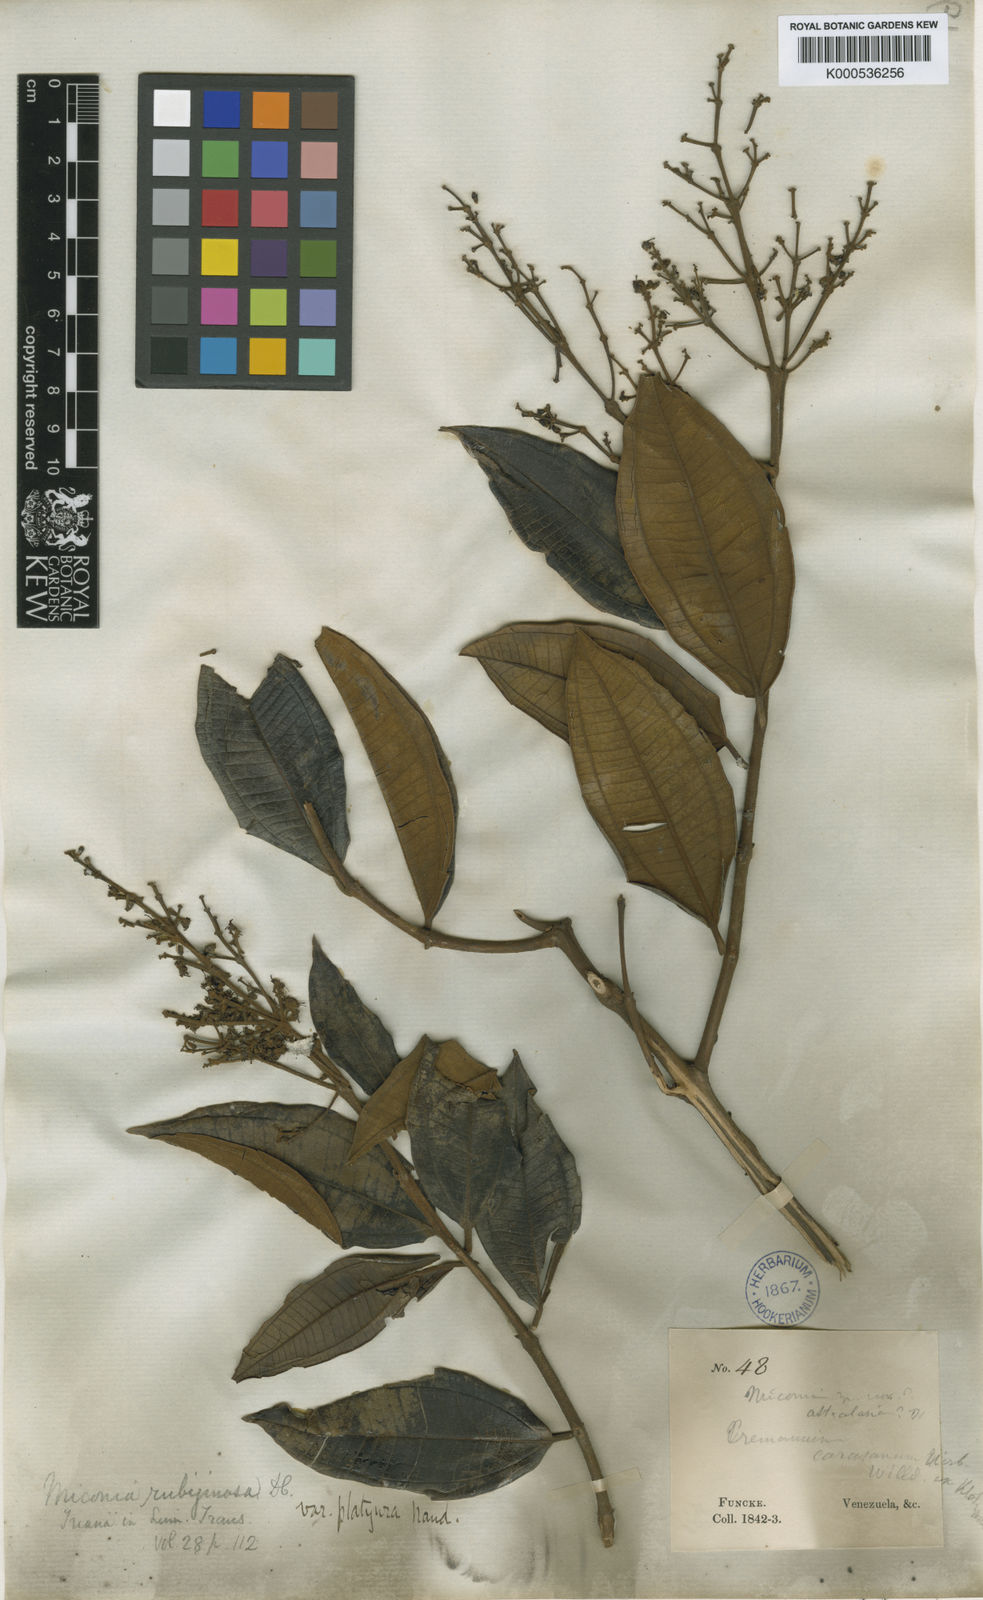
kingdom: Plantae
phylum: Tracheophyta
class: Magnoliopsida
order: Myrtales
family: Melastomataceae
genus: Miconia
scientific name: Miconia rubiginosa
